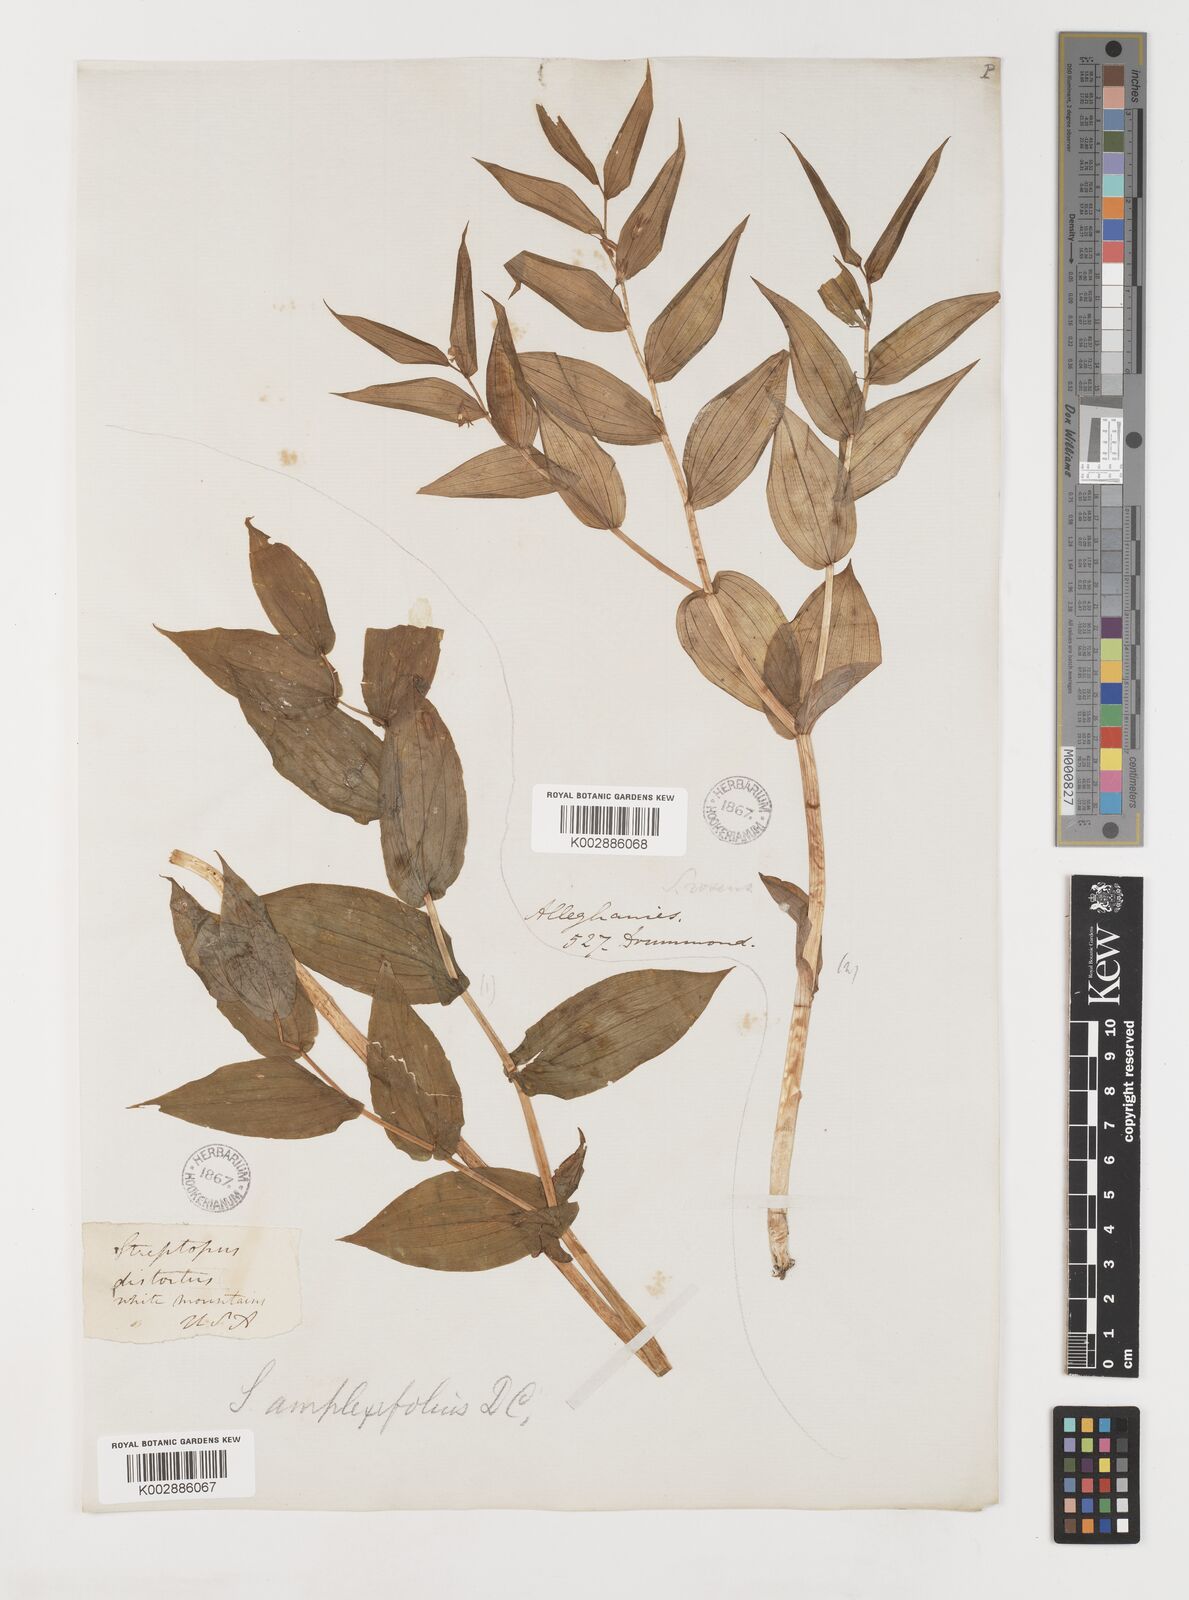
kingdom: Plantae
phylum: Tracheophyta
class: Liliopsida
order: Liliales
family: Liliaceae
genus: Streptopus
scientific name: Streptopus lanceolatus
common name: Rose mandarin
